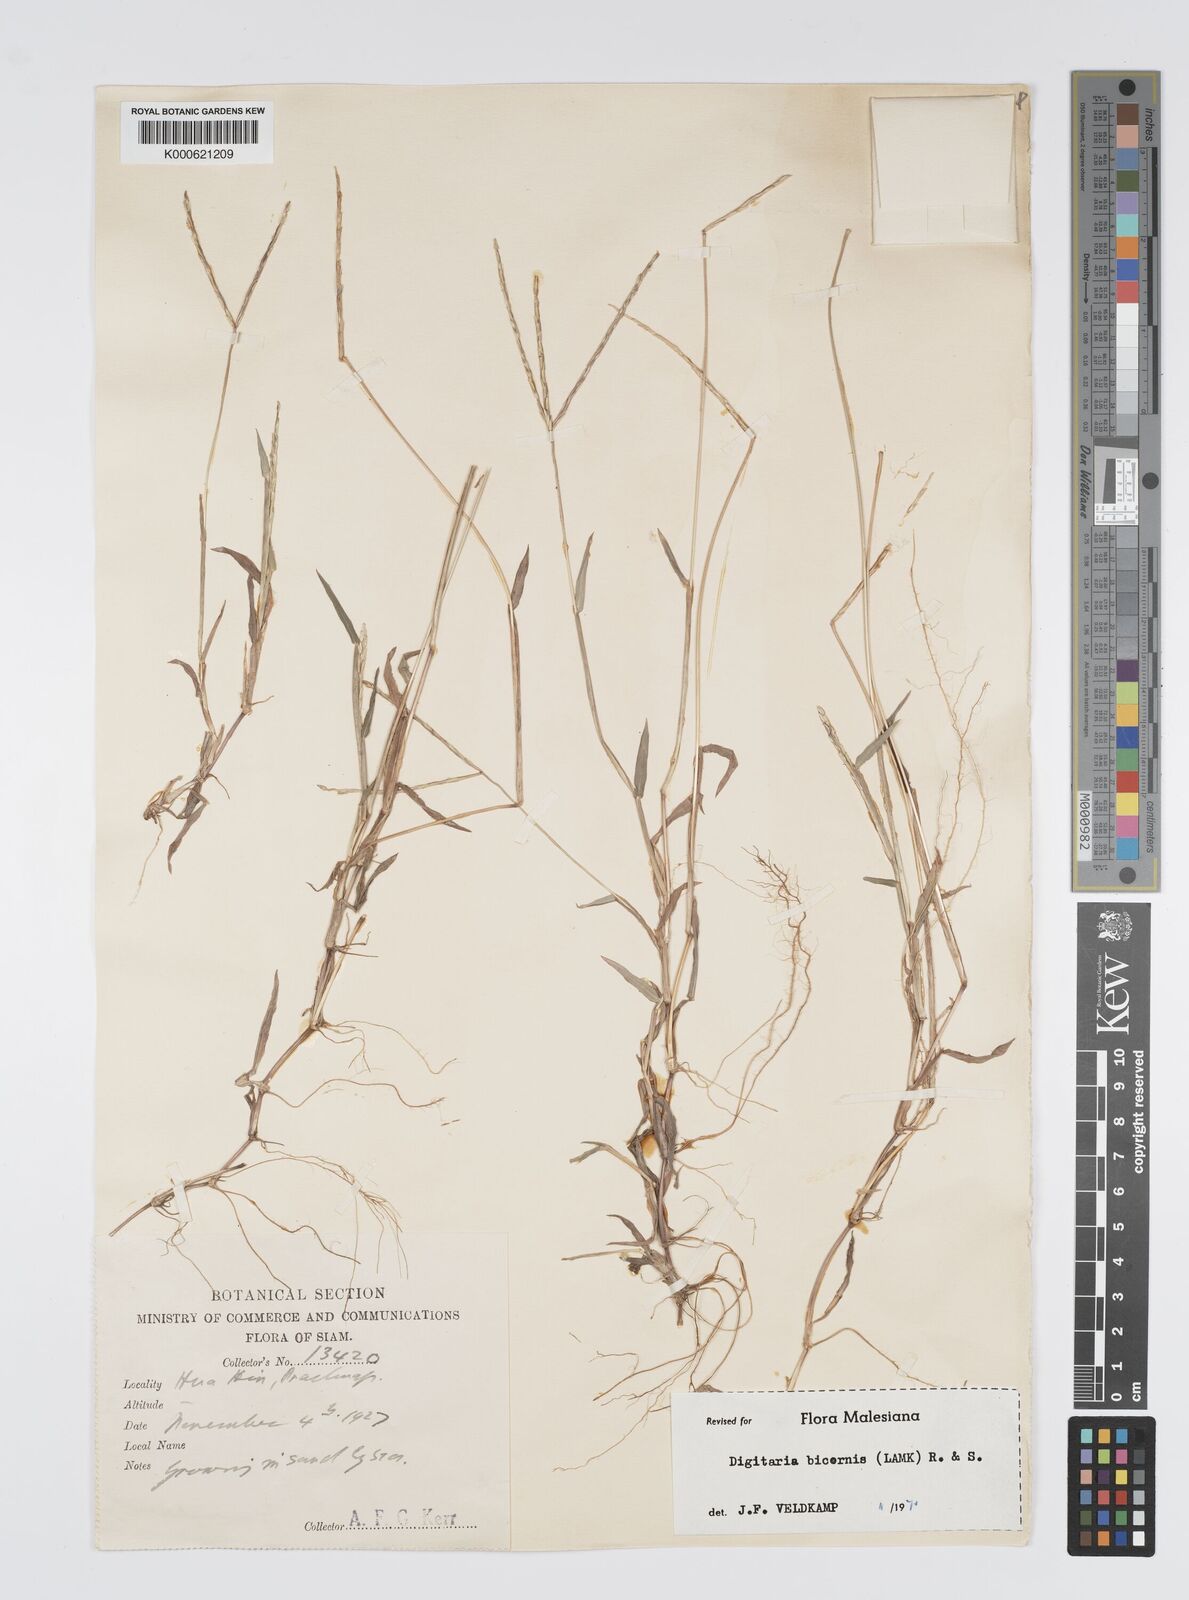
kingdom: Plantae
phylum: Tracheophyta
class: Liliopsida
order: Poales
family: Poaceae
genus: Digitaria
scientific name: Digitaria bicornis
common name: Asian crabgrass
